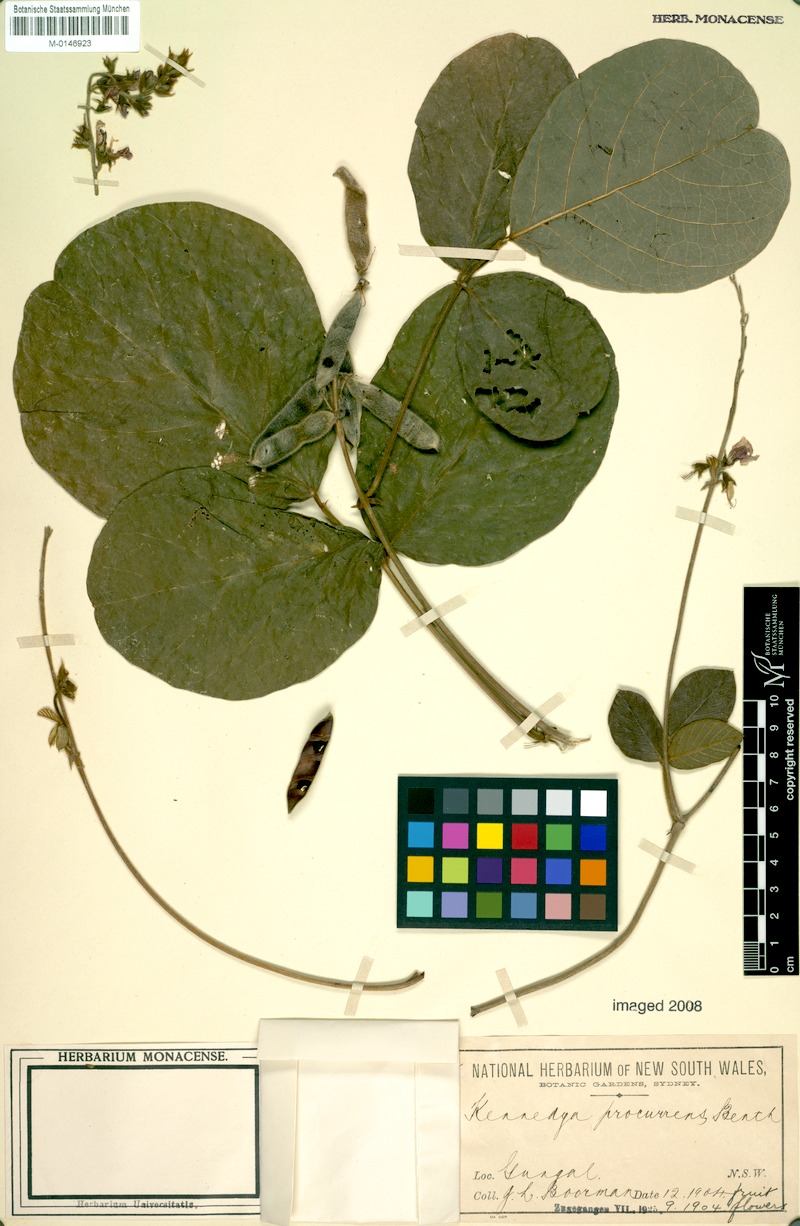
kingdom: Plantae
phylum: Tracheophyta
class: Magnoliopsida
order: Fabales
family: Fabaceae
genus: Kennedia
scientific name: Kennedia procurrens
